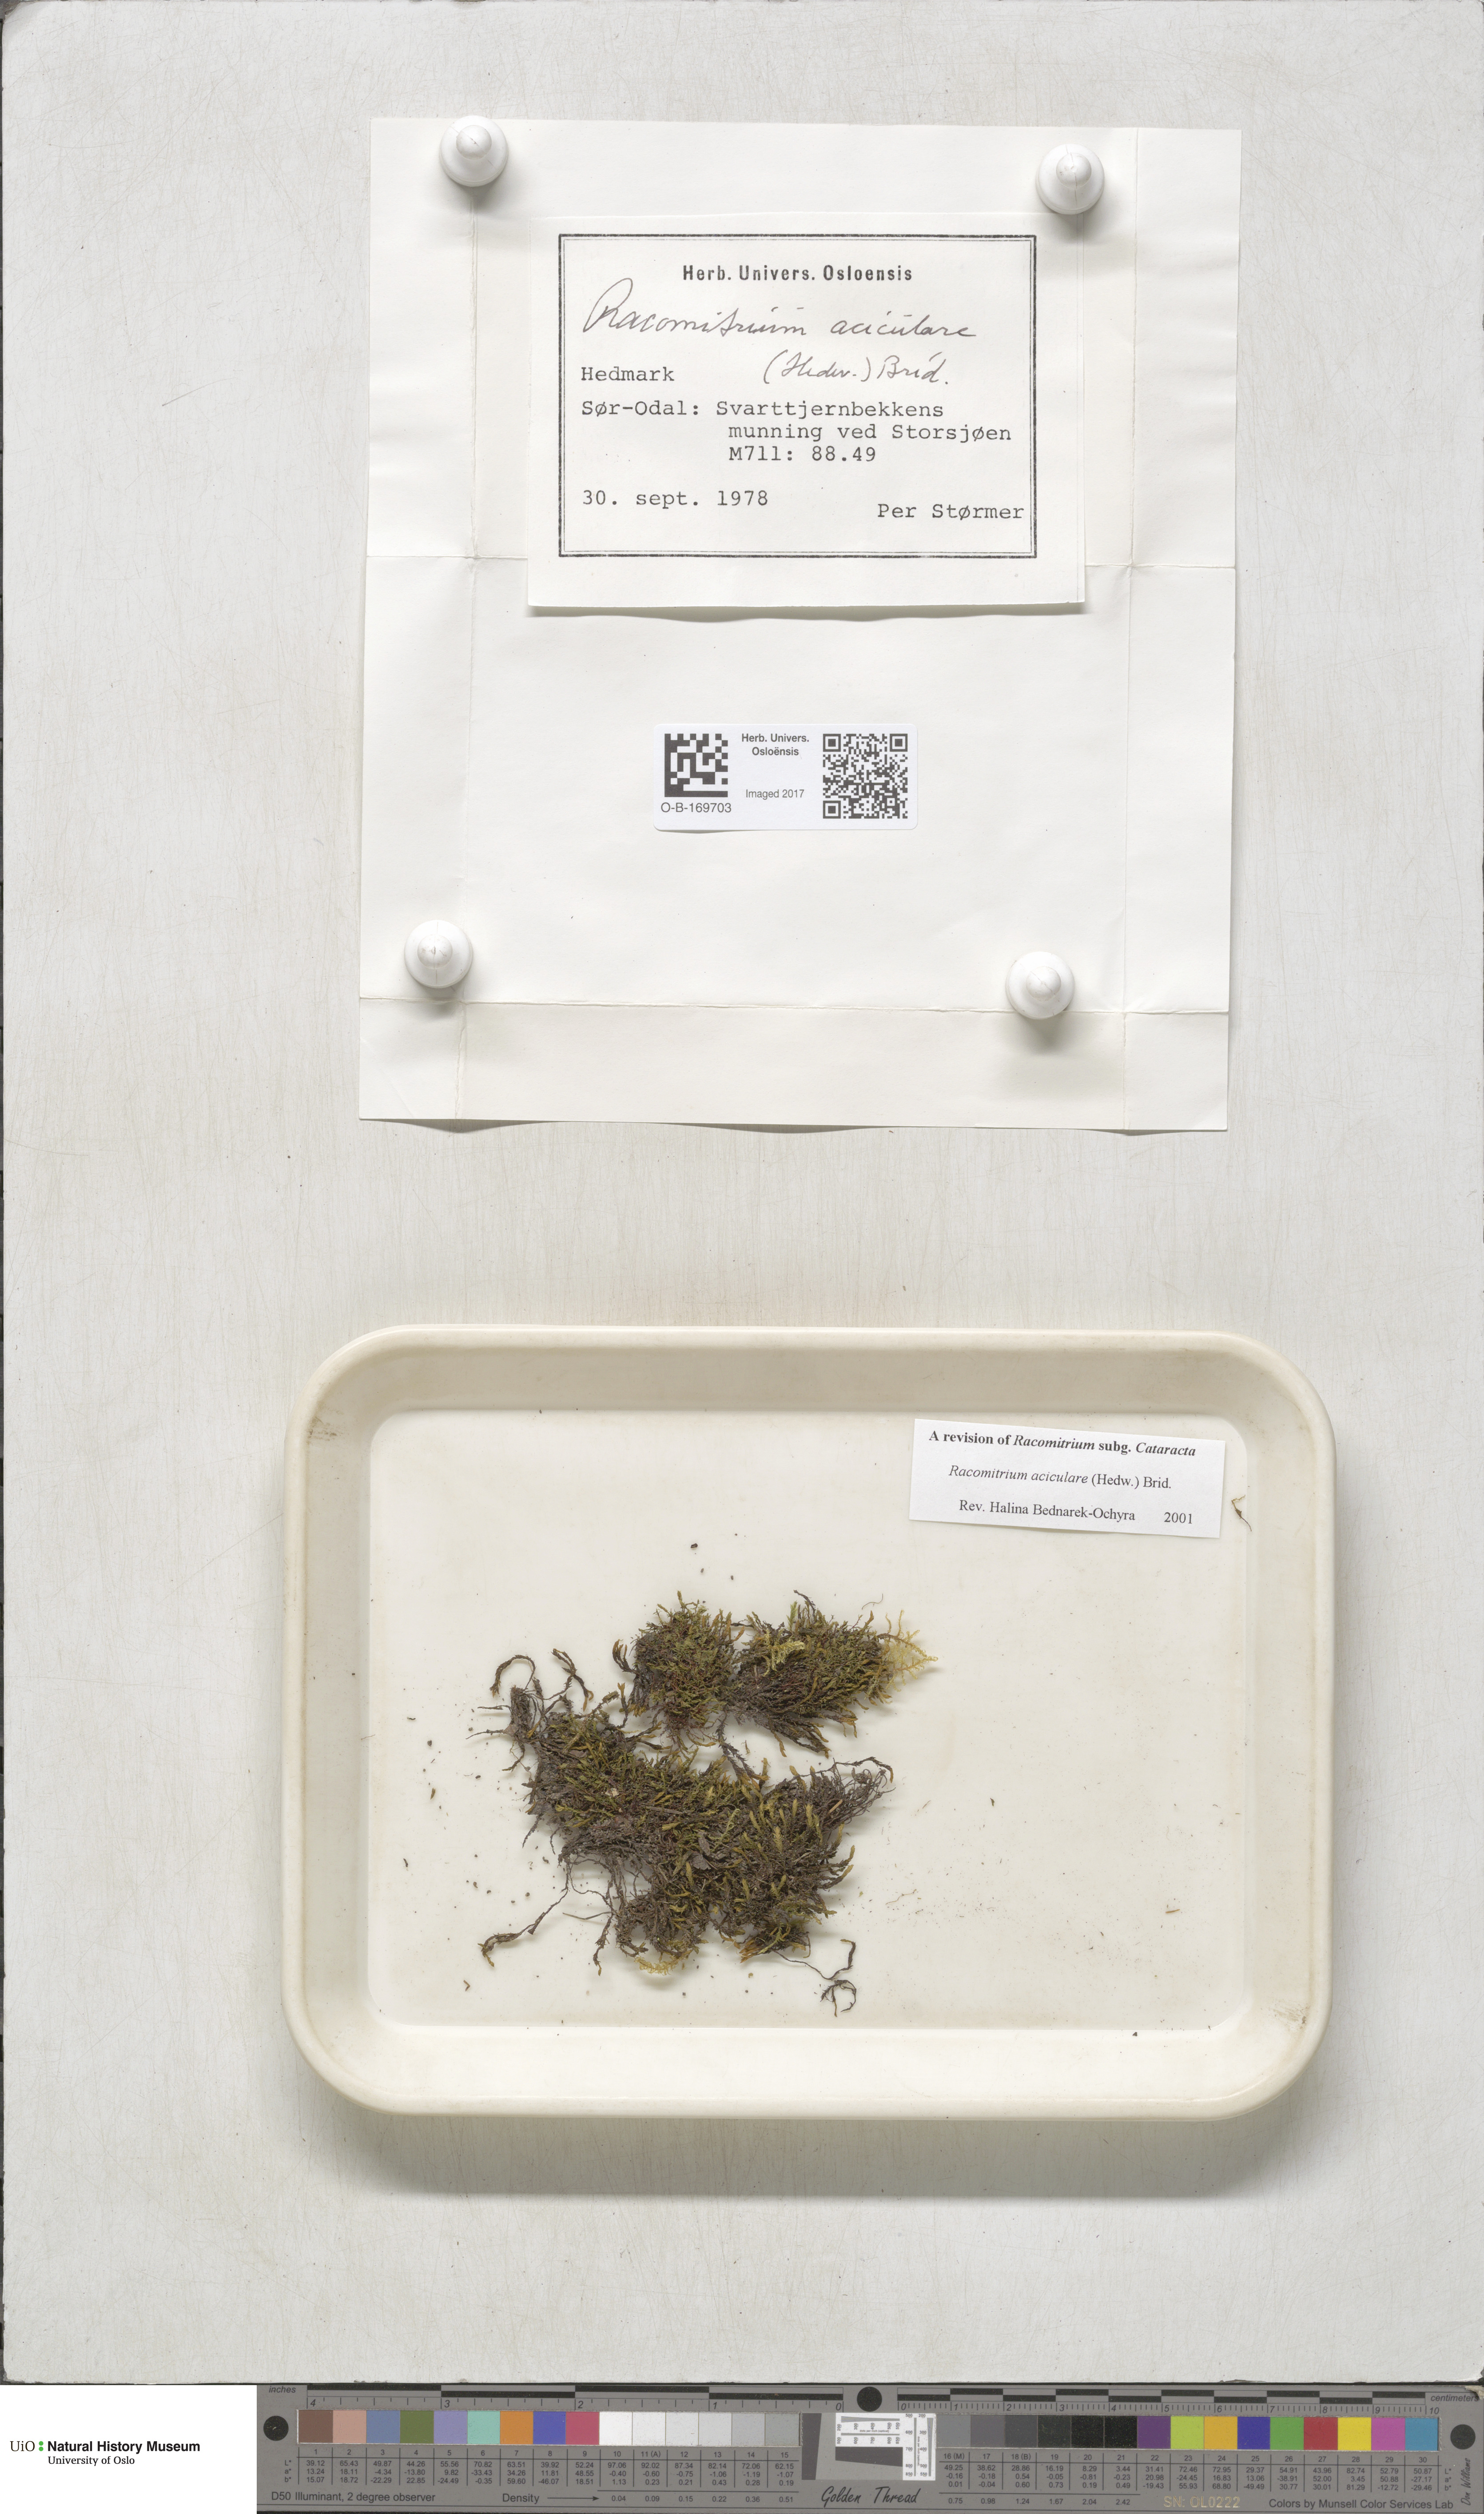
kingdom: Plantae
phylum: Bryophyta
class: Bryopsida
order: Grimmiales
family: Grimmiaceae
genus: Codriophorus
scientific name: Codriophorus acicularis
